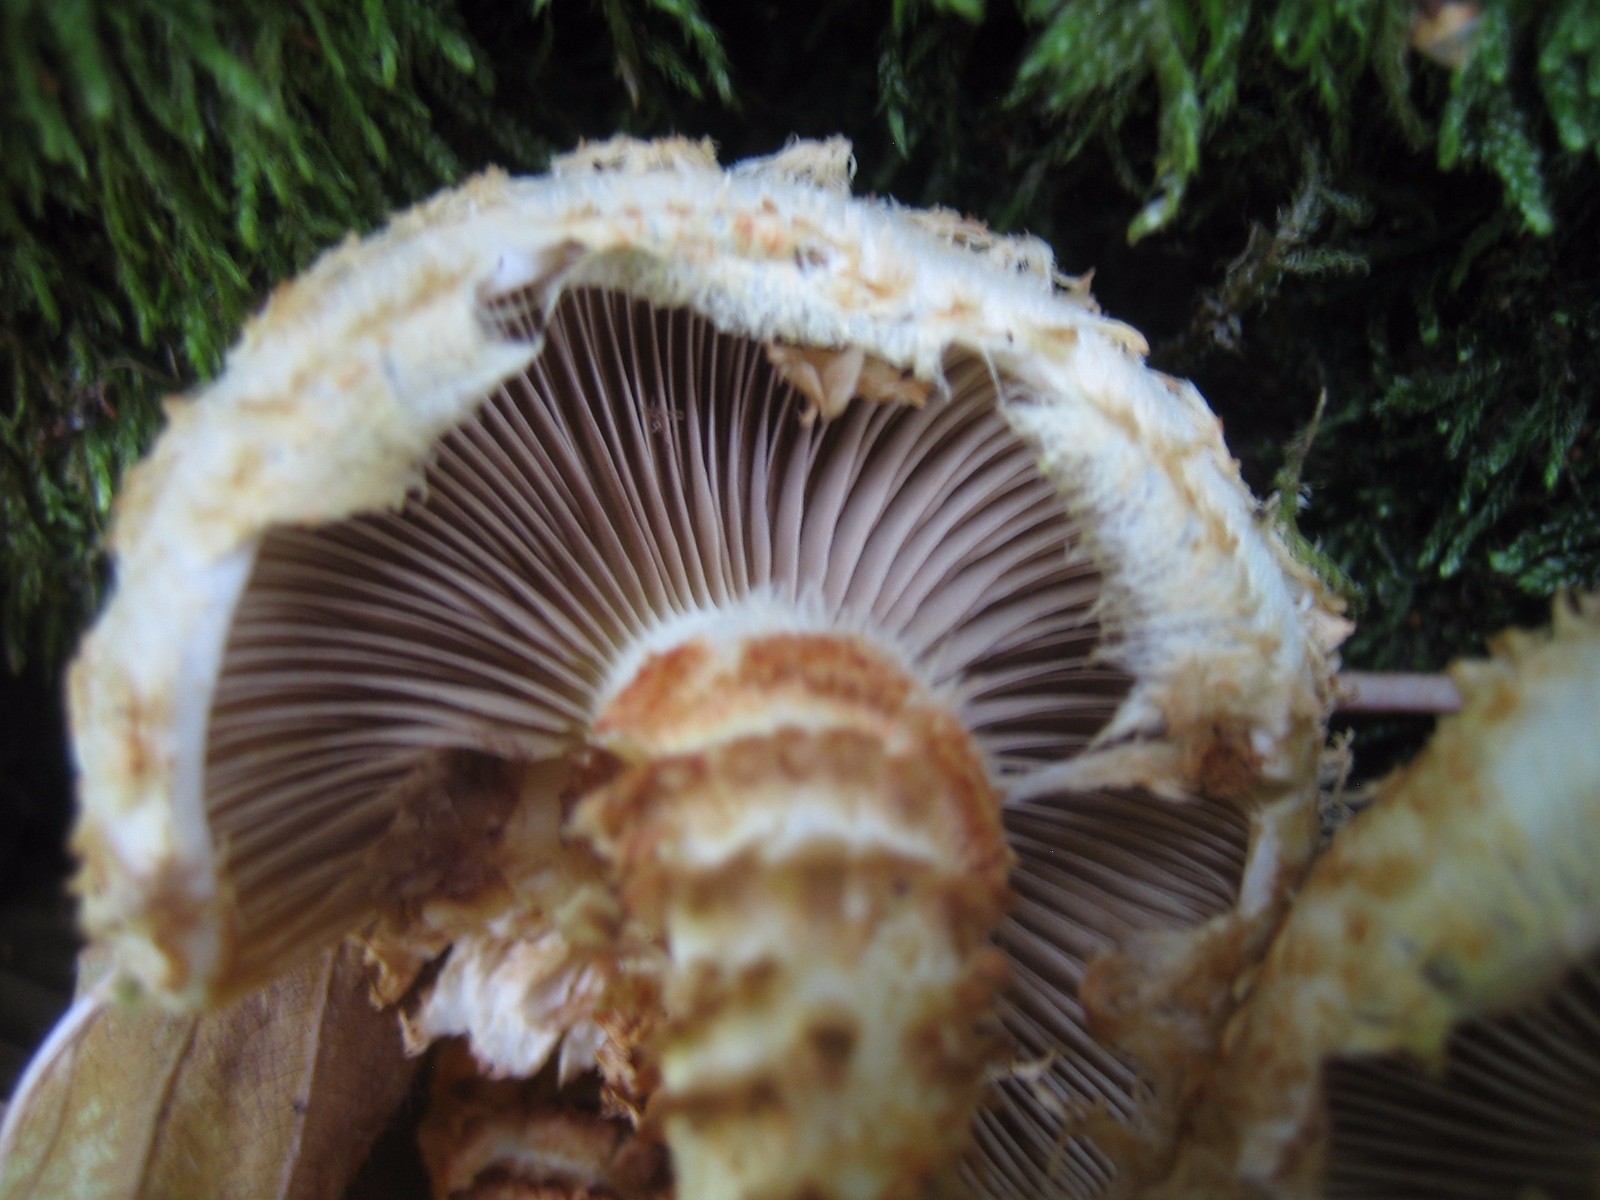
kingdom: Fungi
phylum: Basidiomycota
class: Agaricomycetes
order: Agaricales
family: Strophariaceae
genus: Pholiota
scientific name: Pholiota squarrosa
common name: krumskællet skælhat
